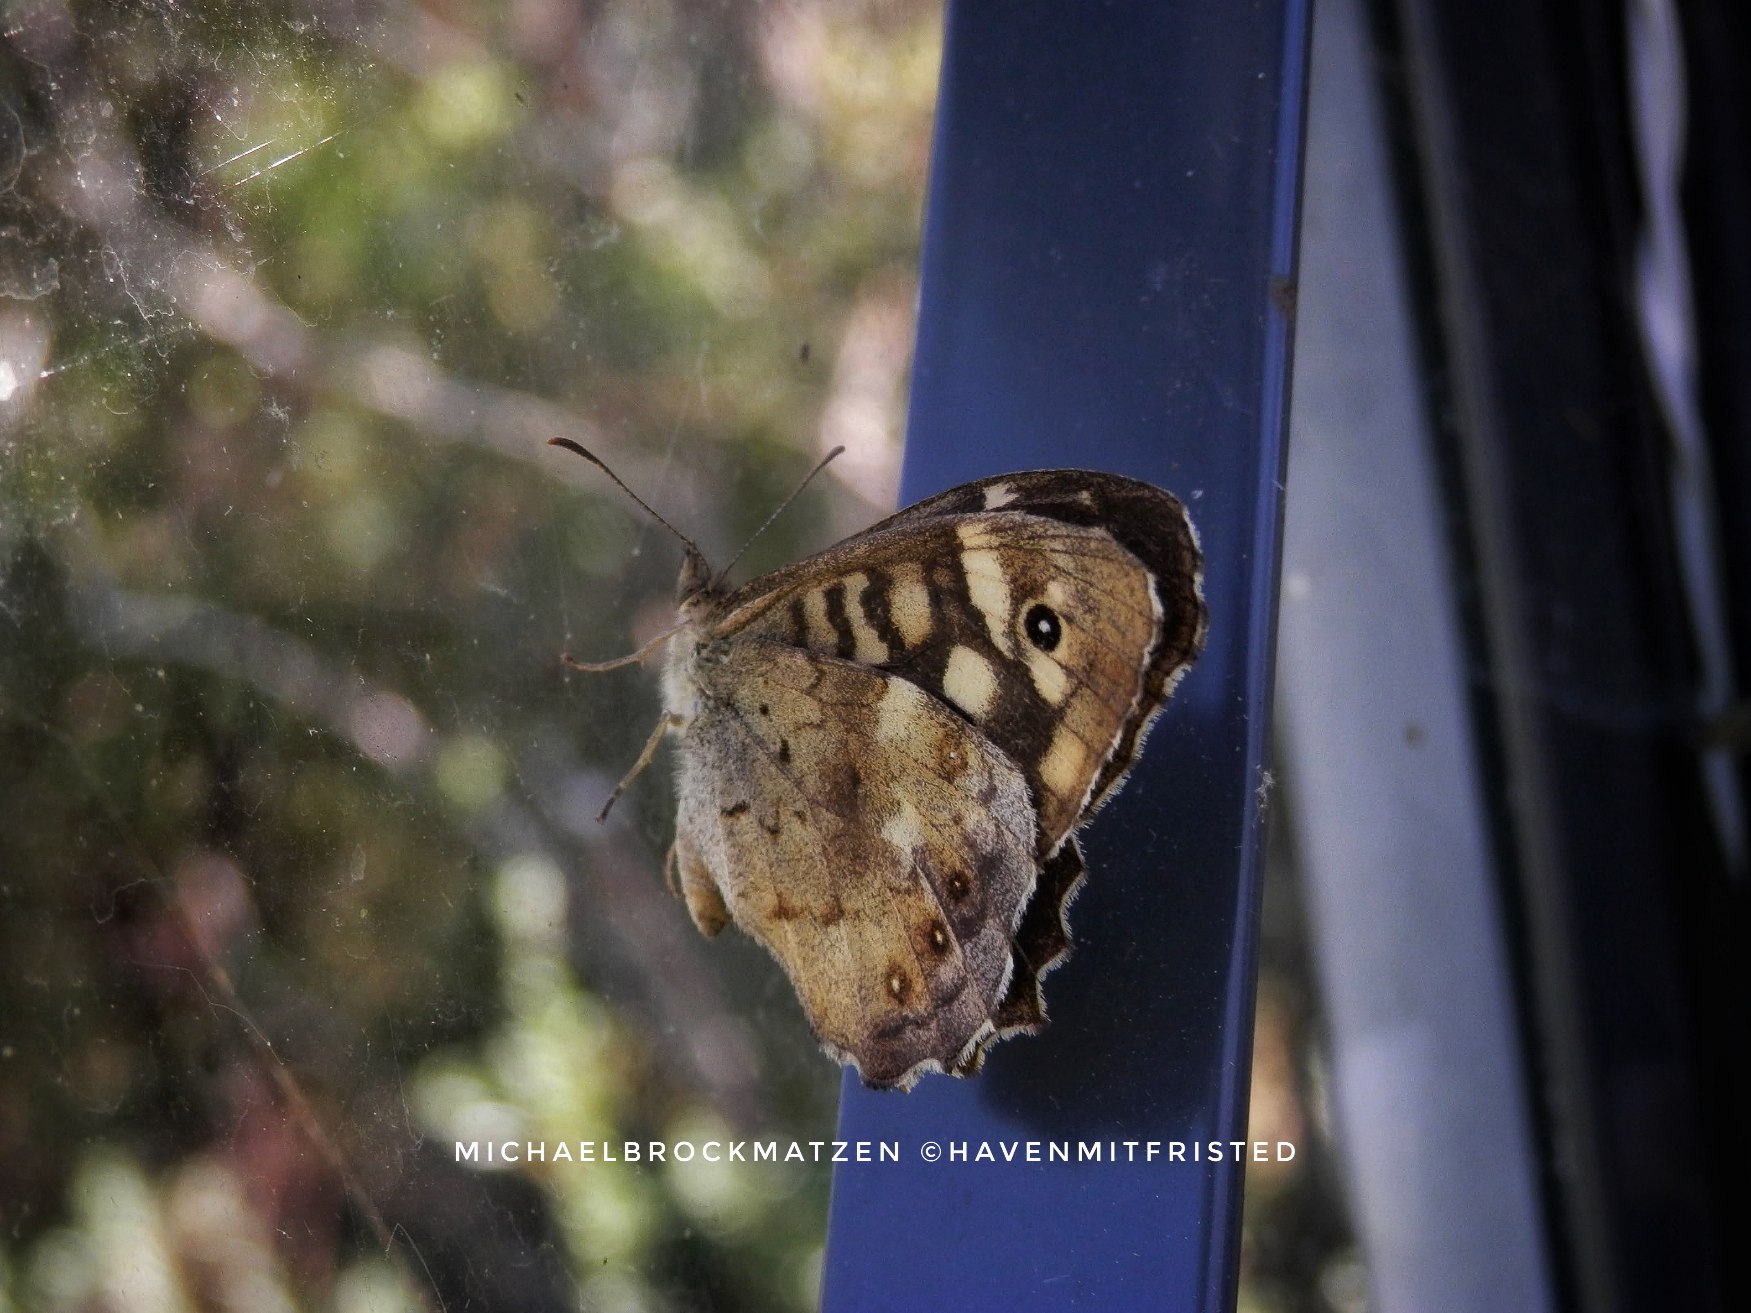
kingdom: Animalia
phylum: Arthropoda
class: Insecta
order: Lepidoptera
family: Nymphalidae
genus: Pararge
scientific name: Pararge aegeria
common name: Skovrandøje
